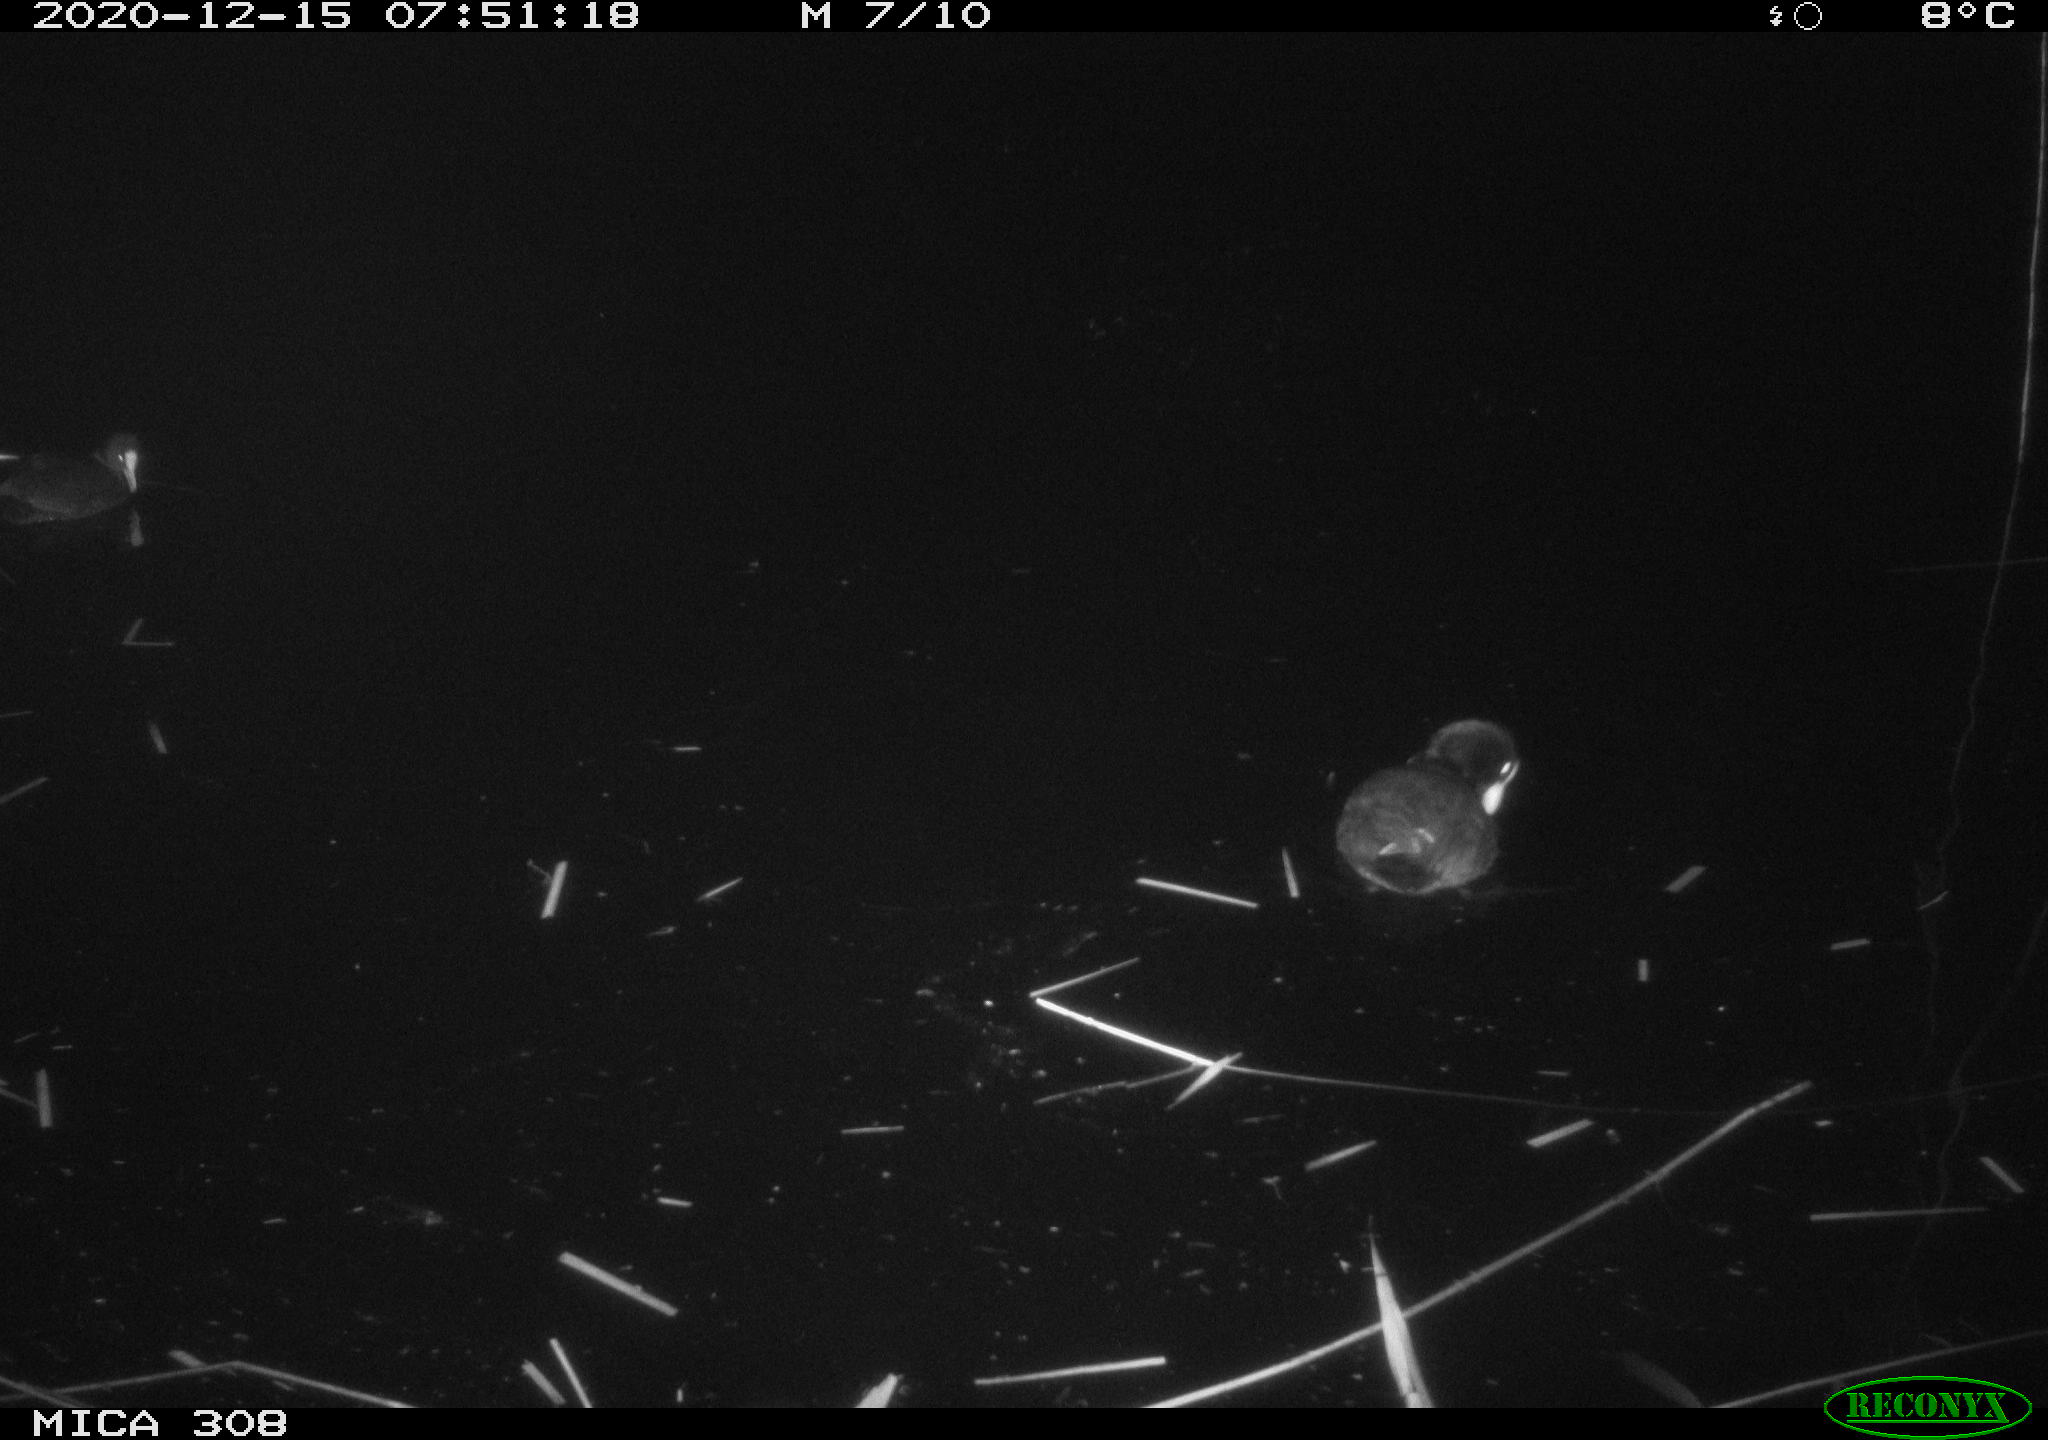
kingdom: Animalia
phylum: Chordata
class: Aves
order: Gruiformes
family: Rallidae
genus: Gallinula
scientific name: Gallinula chloropus
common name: Common moorhen
